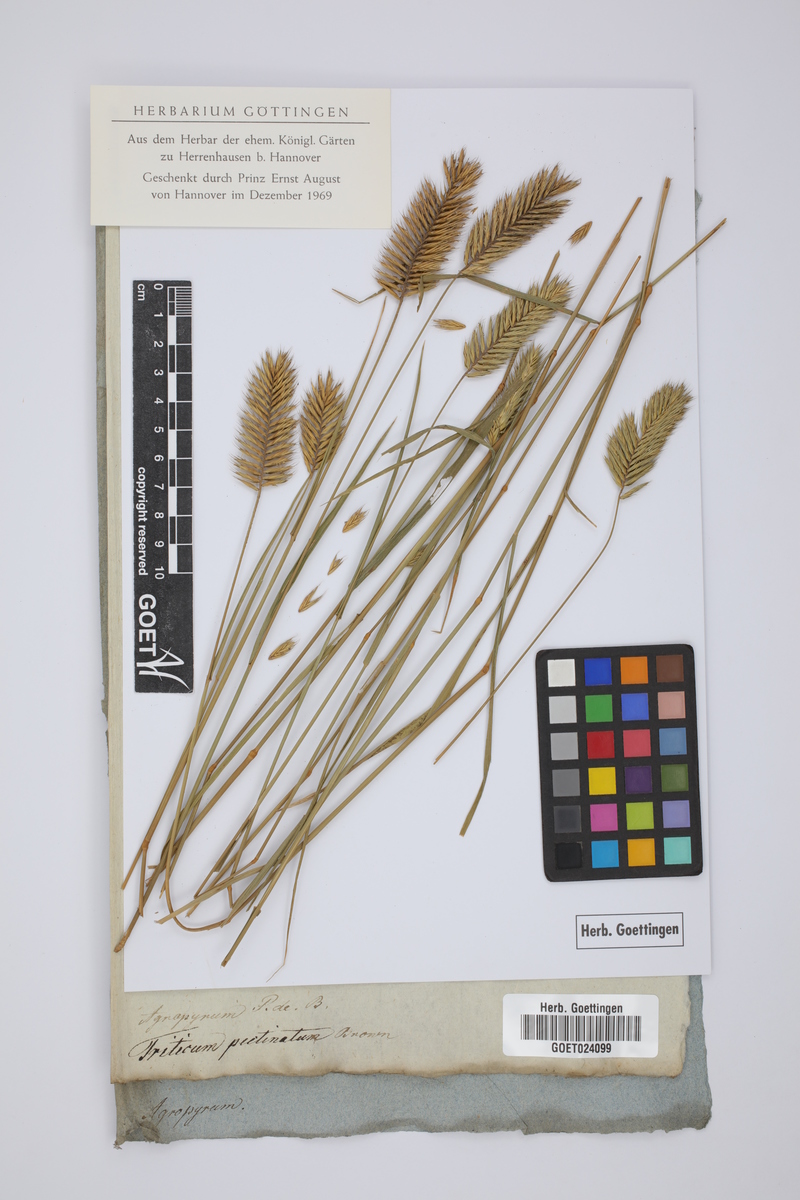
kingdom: Plantae
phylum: Tracheophyta
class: Liliopsida
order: Poales
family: Poaceae
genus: Agropyron
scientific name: Agropyron cristatum
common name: Crested wheatgrass
